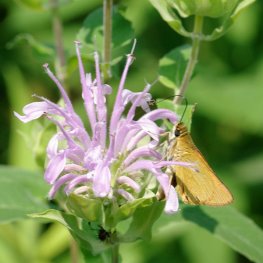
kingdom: Animalia
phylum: Arthropoda
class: Insecta
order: Lepidoptera
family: Hesperiidae
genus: Atrytone
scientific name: Atrytone delaware
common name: Delaware Skipper
